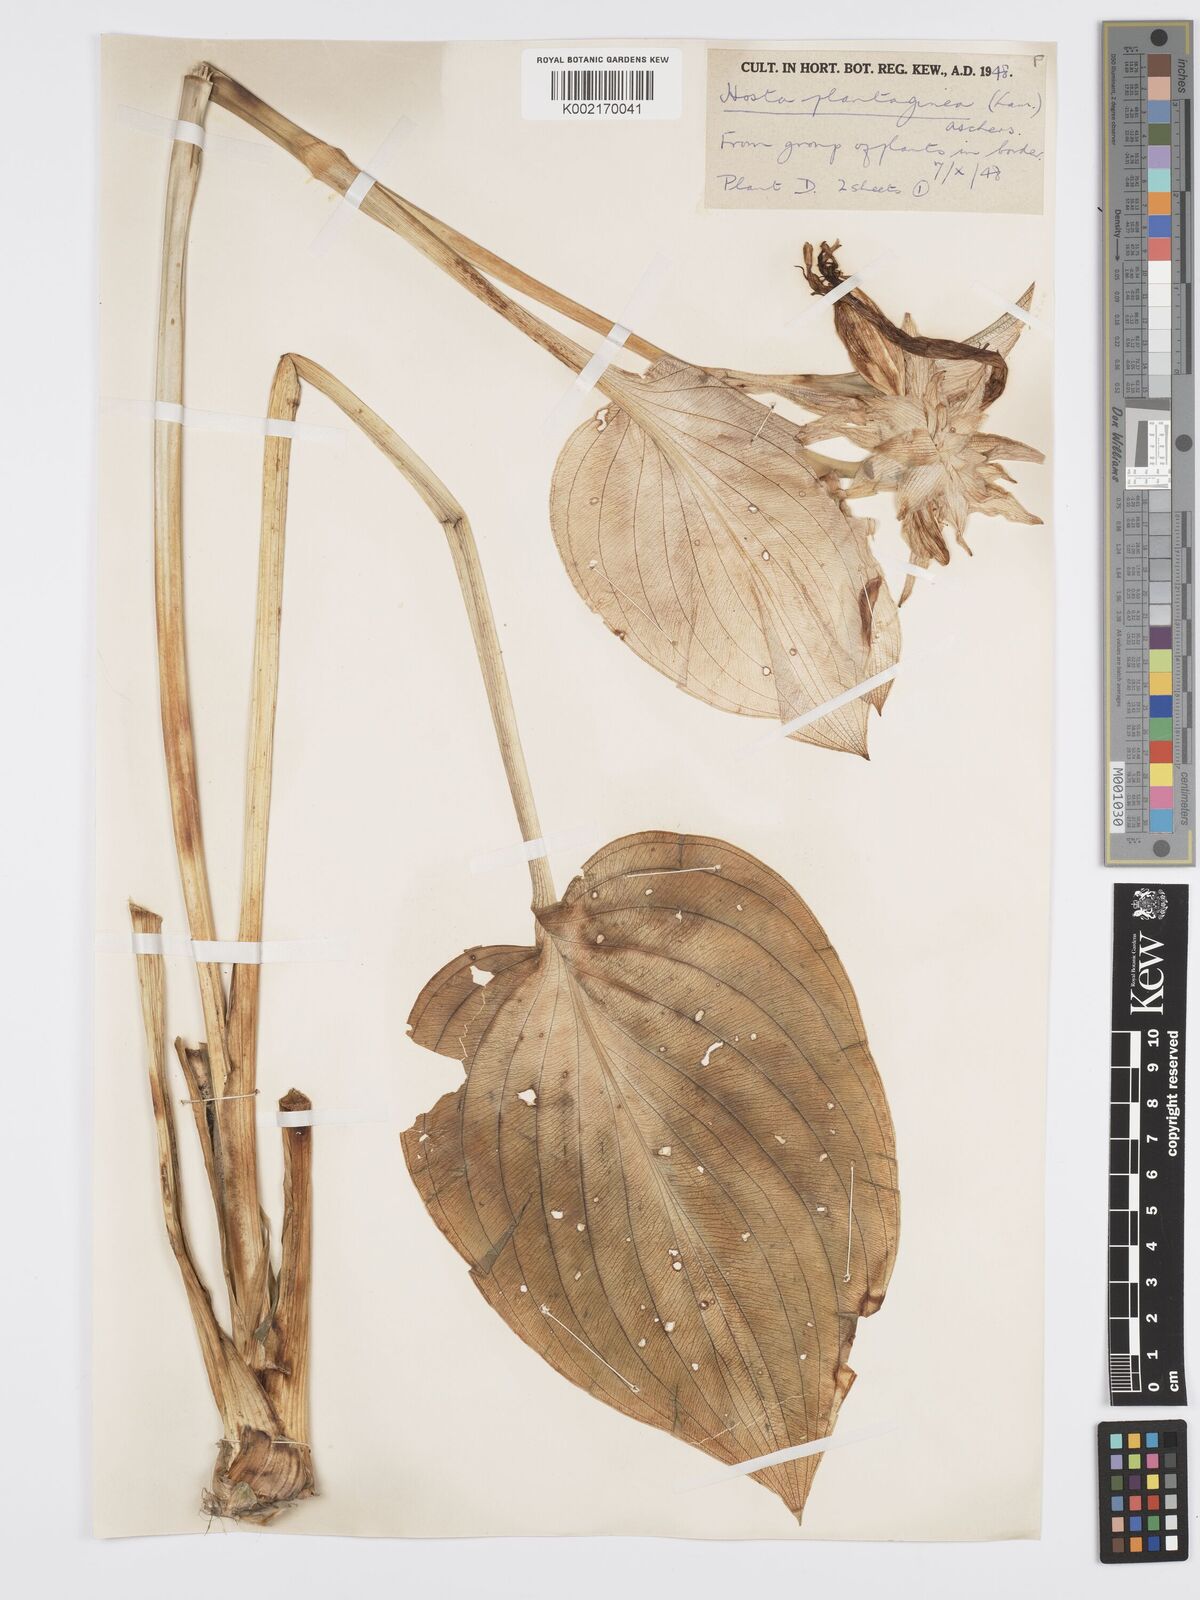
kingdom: Plantae
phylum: Tracheophyta
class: Liliopsida
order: Asparagales
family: Asparagaceae
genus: Hosta
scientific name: Hosta plantaginea
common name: August-lily
